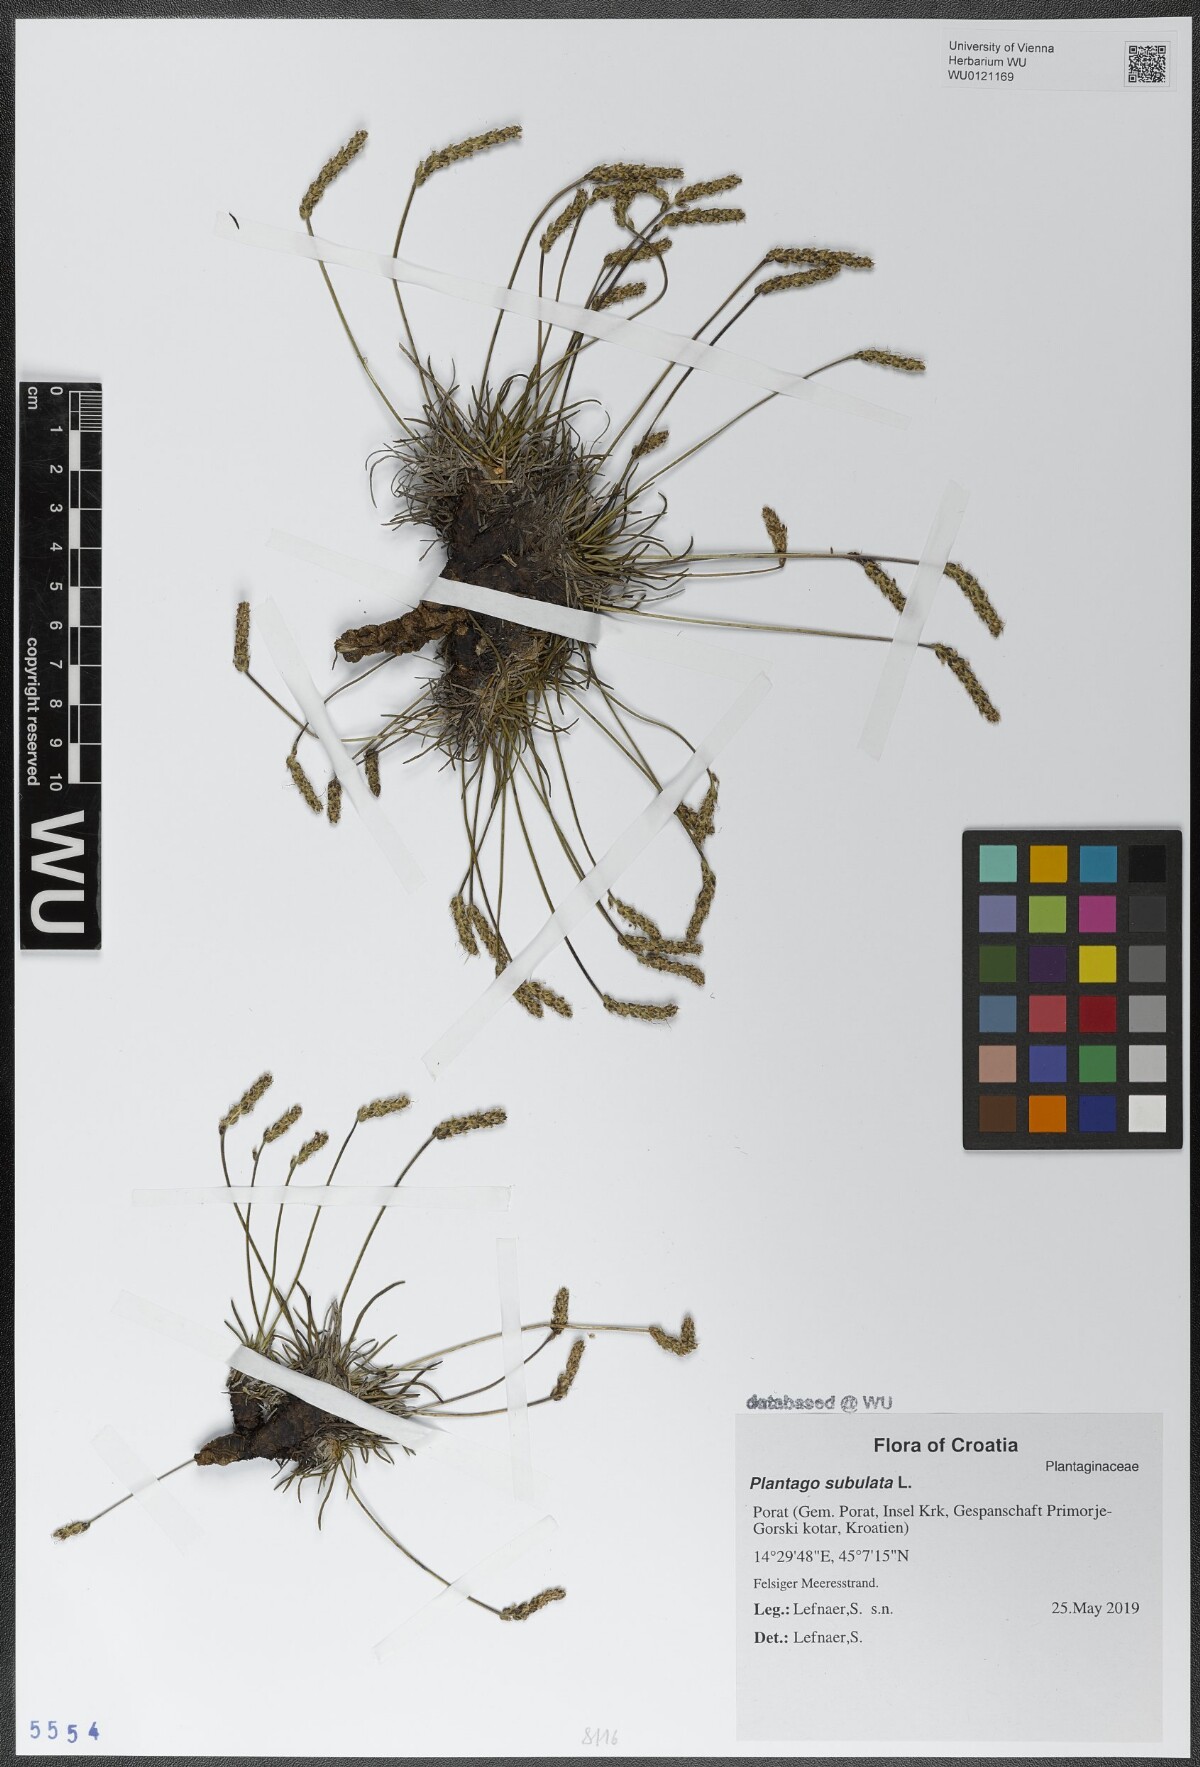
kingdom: Plantae
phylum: Tracheophyta
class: Magnoliopsida
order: Lamiales
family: Plantaginaceae
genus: Plantago
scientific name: Plantago subulata
